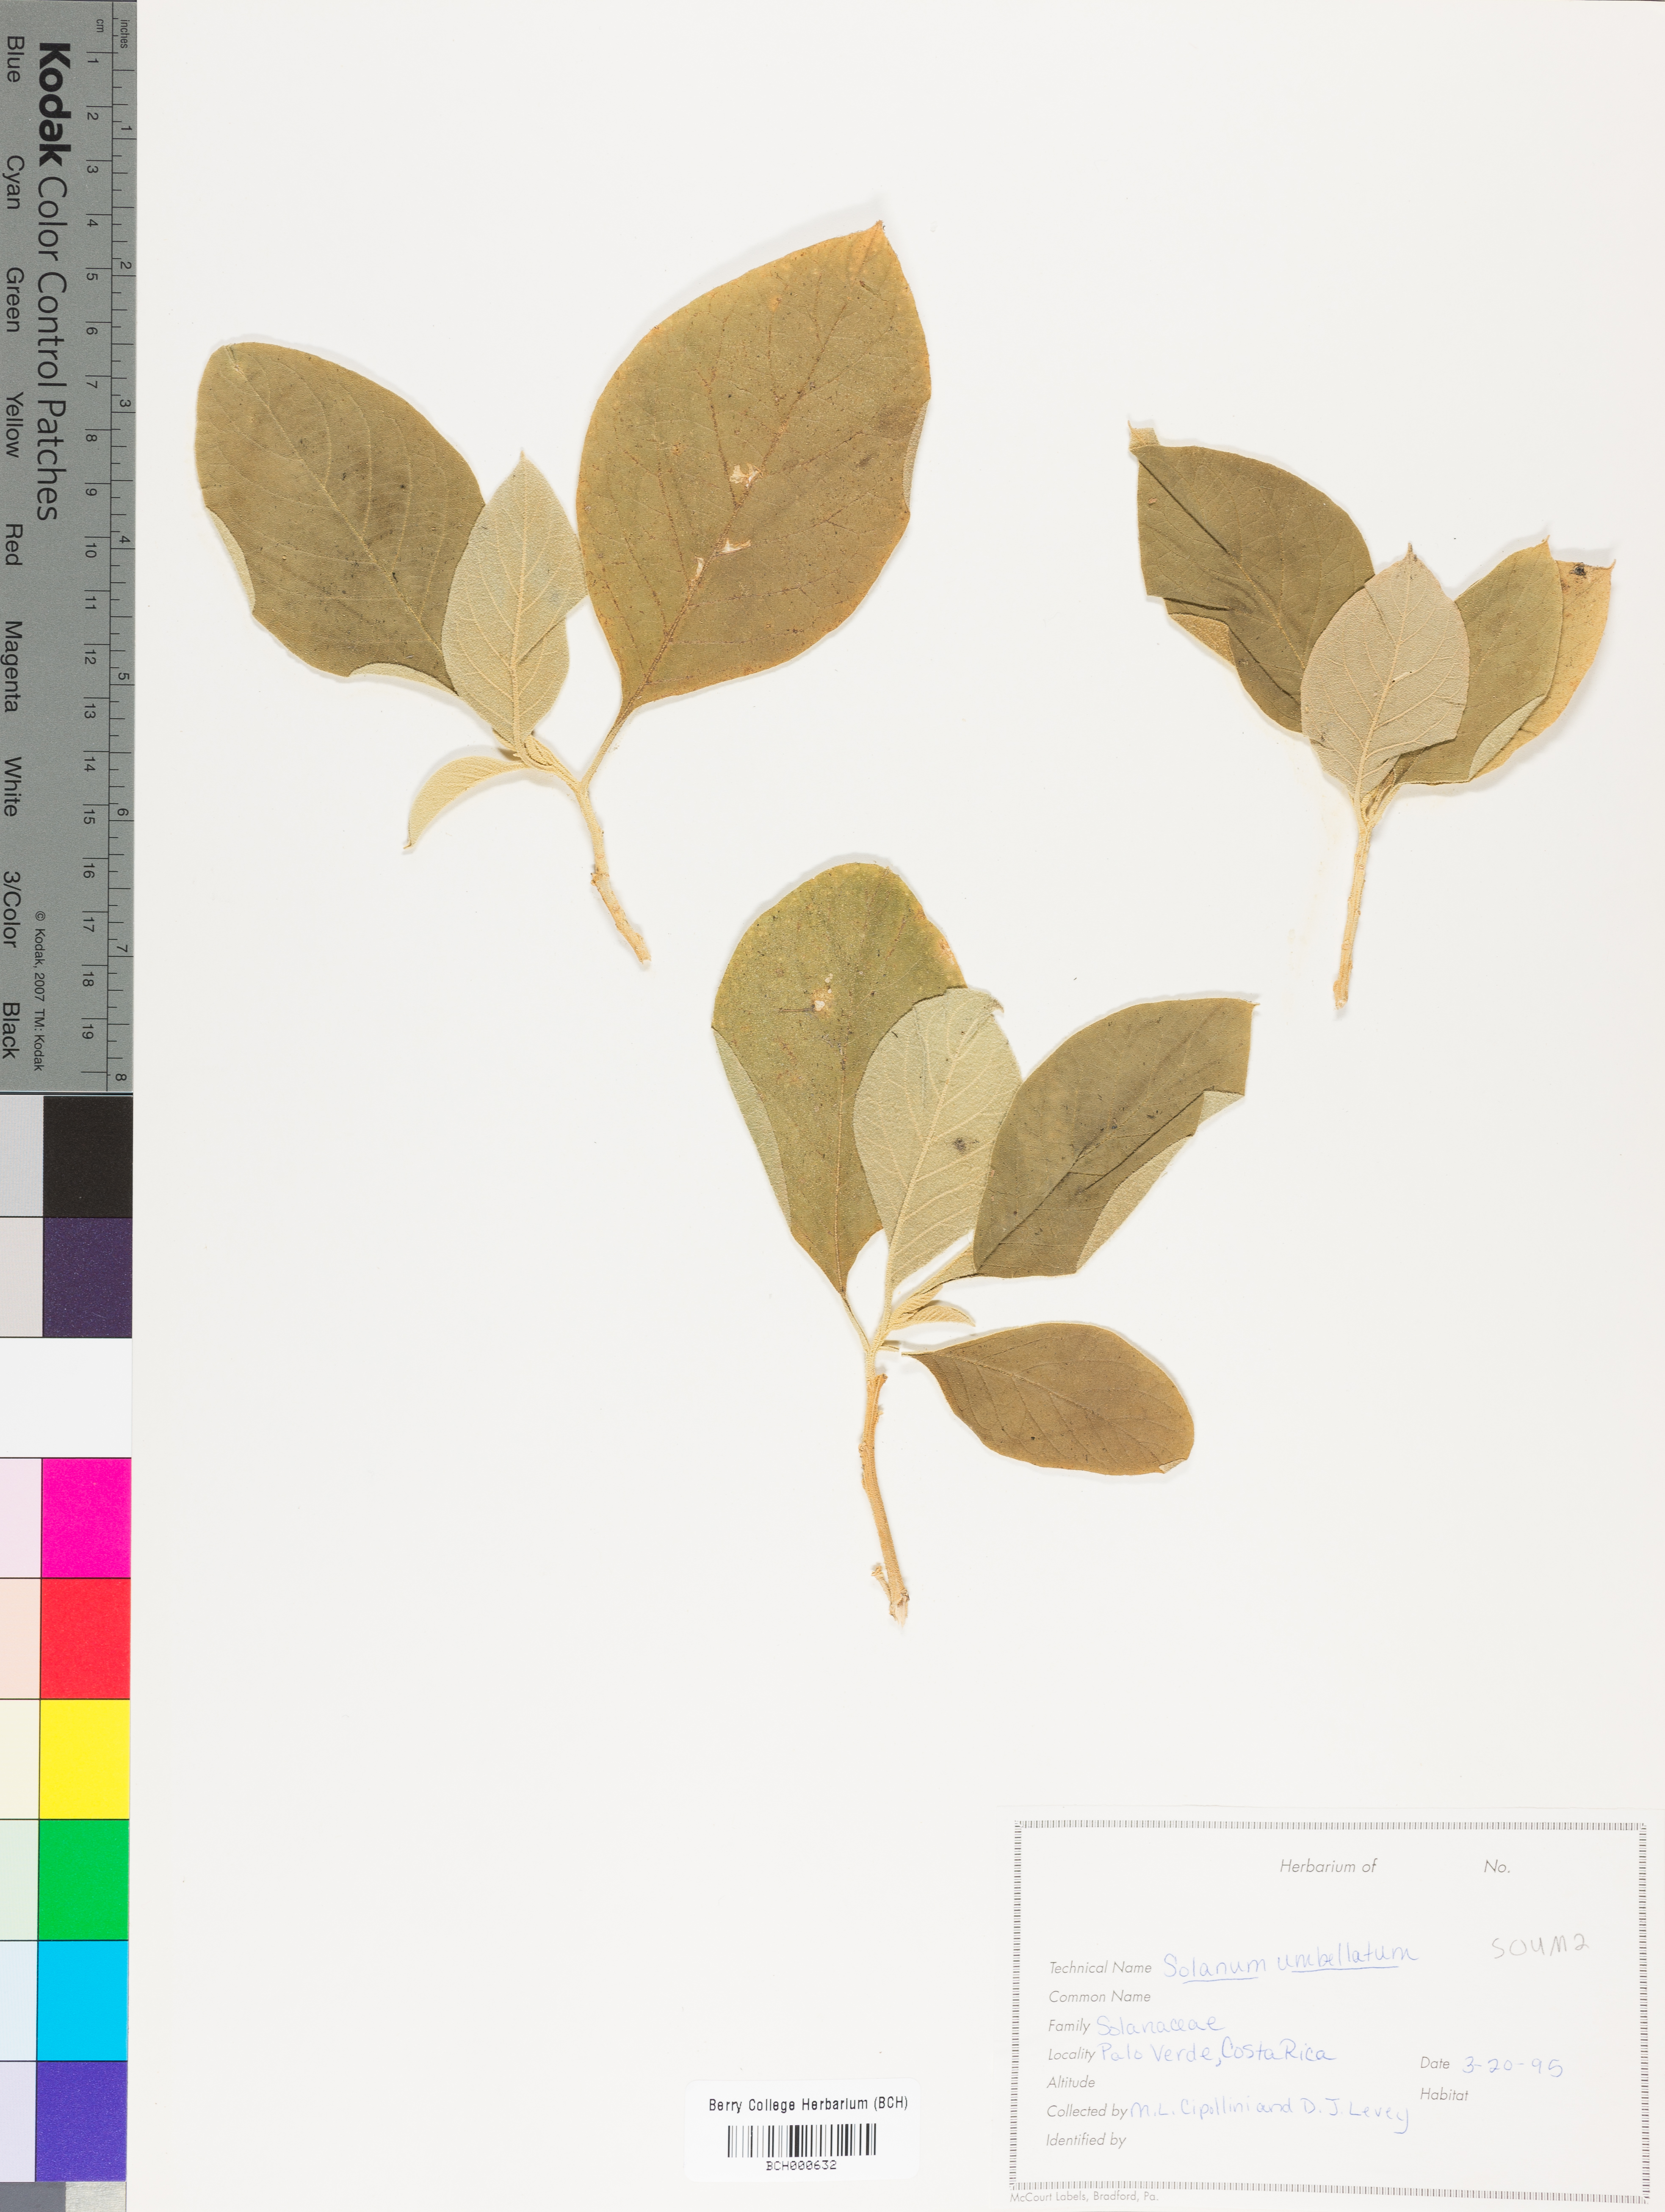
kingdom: Plantae
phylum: Tracheophyta
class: Magnoliopsida
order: Solanales
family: Solanaceae
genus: Lycianthes
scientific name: Lycianthes pauciflora
